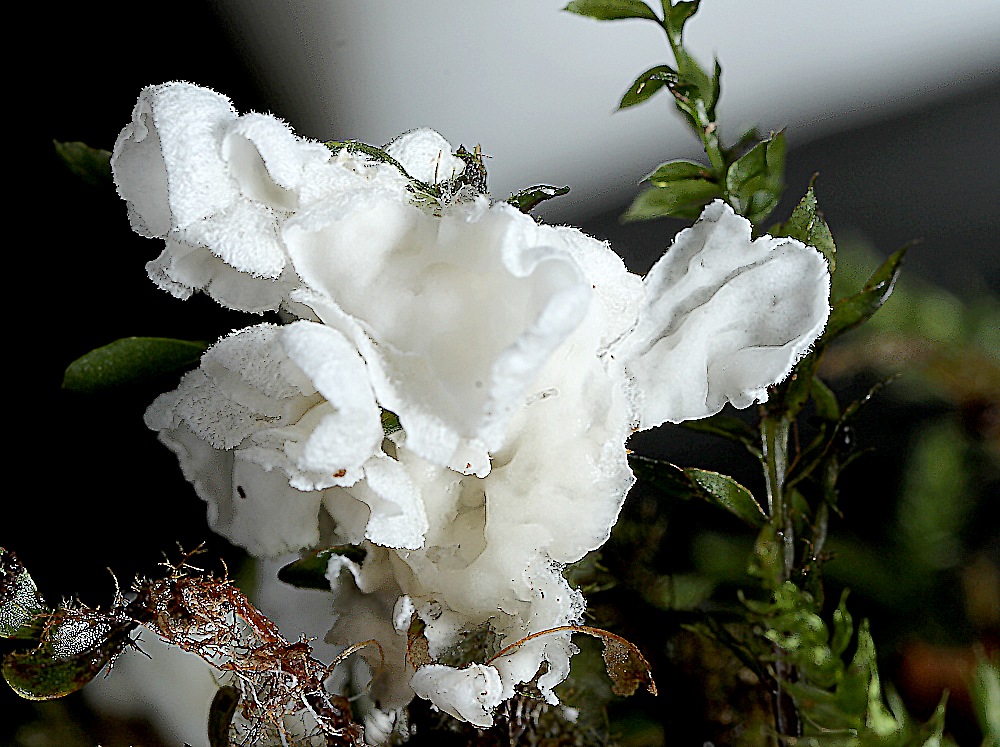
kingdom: Fungi
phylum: Basidiomycota
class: Agaricomycetes
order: Agaricales
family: Tricholomataceae
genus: Rimbachia
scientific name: Rimbachia arachnoidea
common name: Almindelig mosskål
